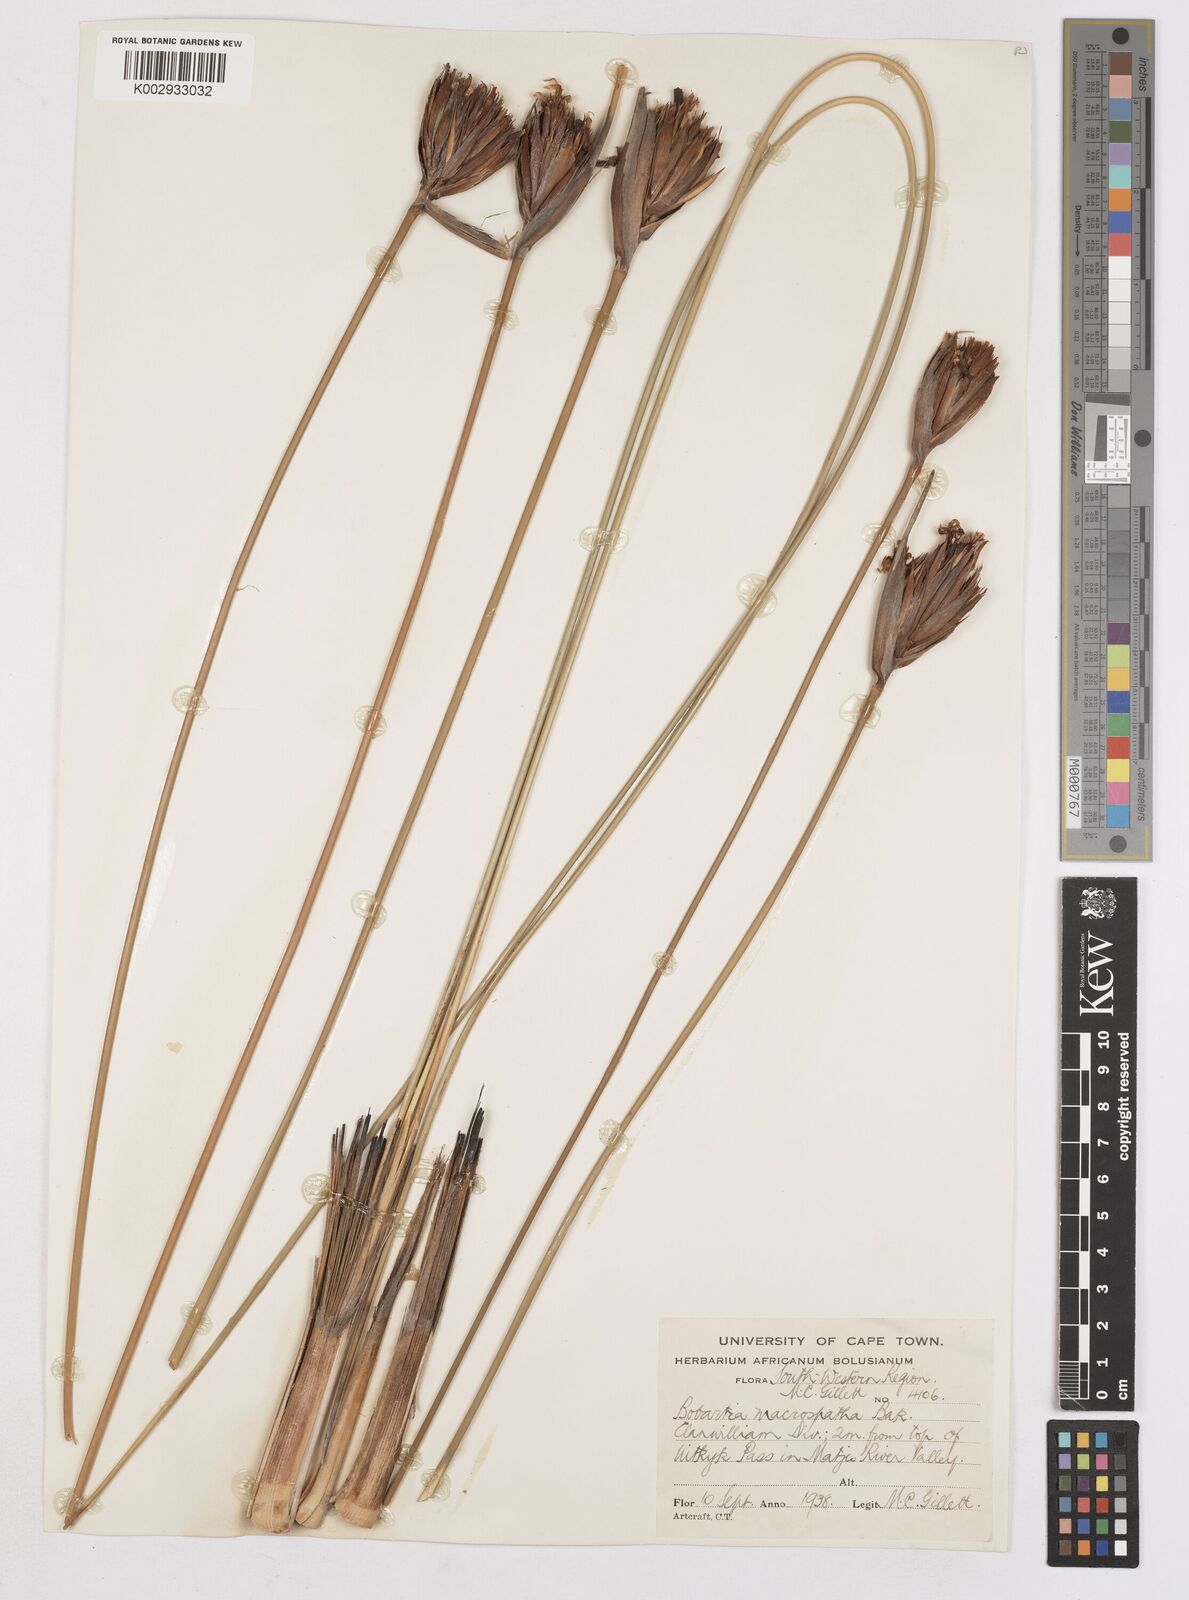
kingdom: Plantae
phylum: Tracheophyta
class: Liliopsida
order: Asparagales
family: Iridaceae
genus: Bobartia
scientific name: Bobartia macrospatha
